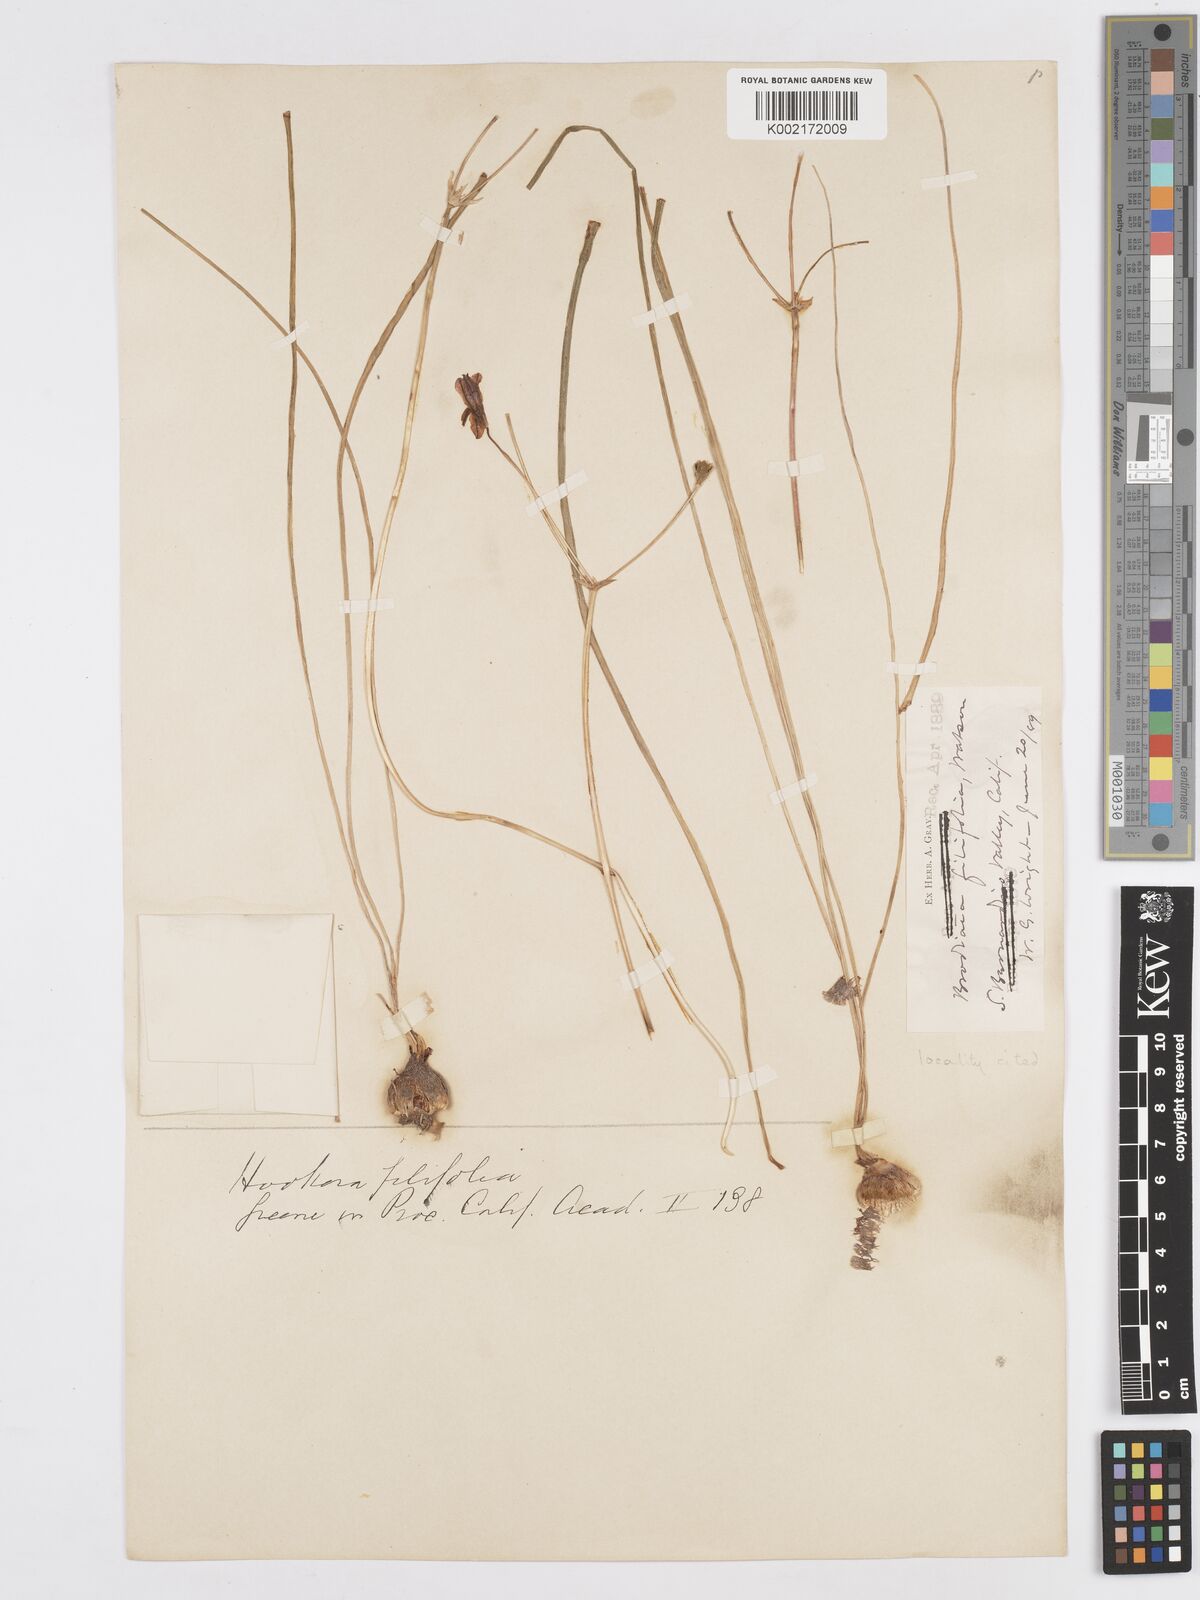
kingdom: Plantae
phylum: Tracheophyta
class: Liliopsida
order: Asparagales
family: Asparagaceae
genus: Brodiaea
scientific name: Brodiaea filifolia
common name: Threadleaf brodiaea
